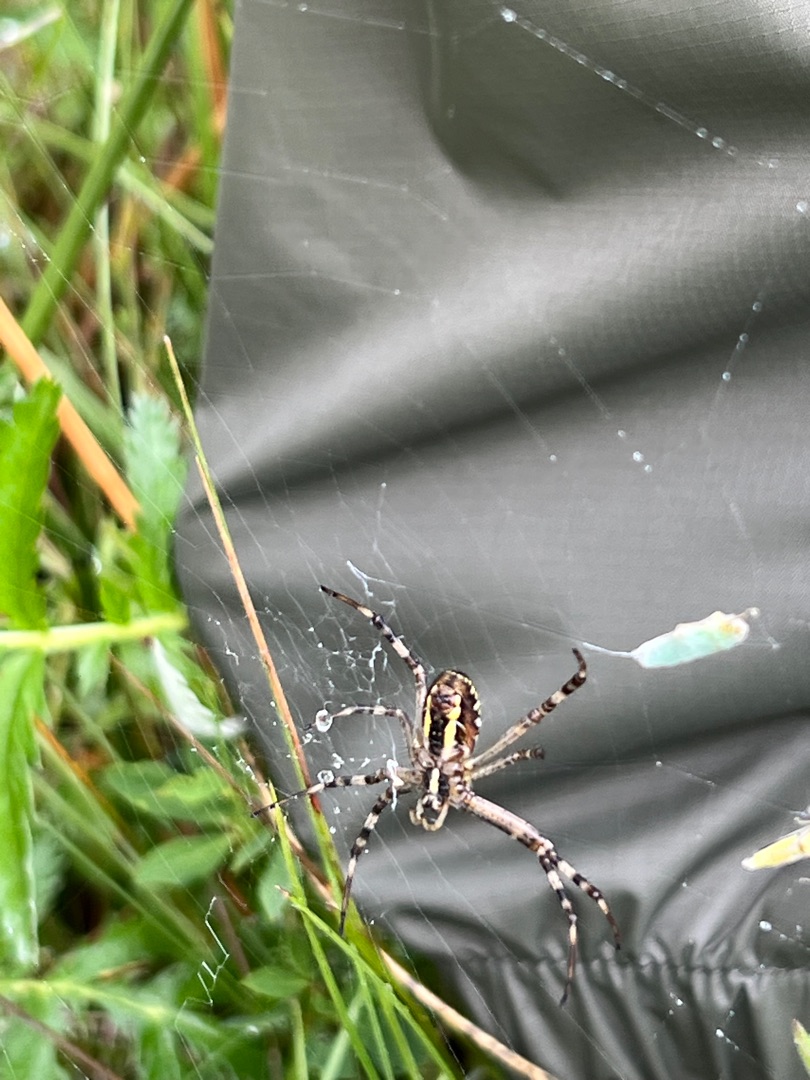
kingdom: Animalia
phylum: Arthropoda
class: Arachnida
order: Araneae
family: Araneidae
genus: Argiope
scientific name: Argiope bruennichi
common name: Hvepseedderkop
